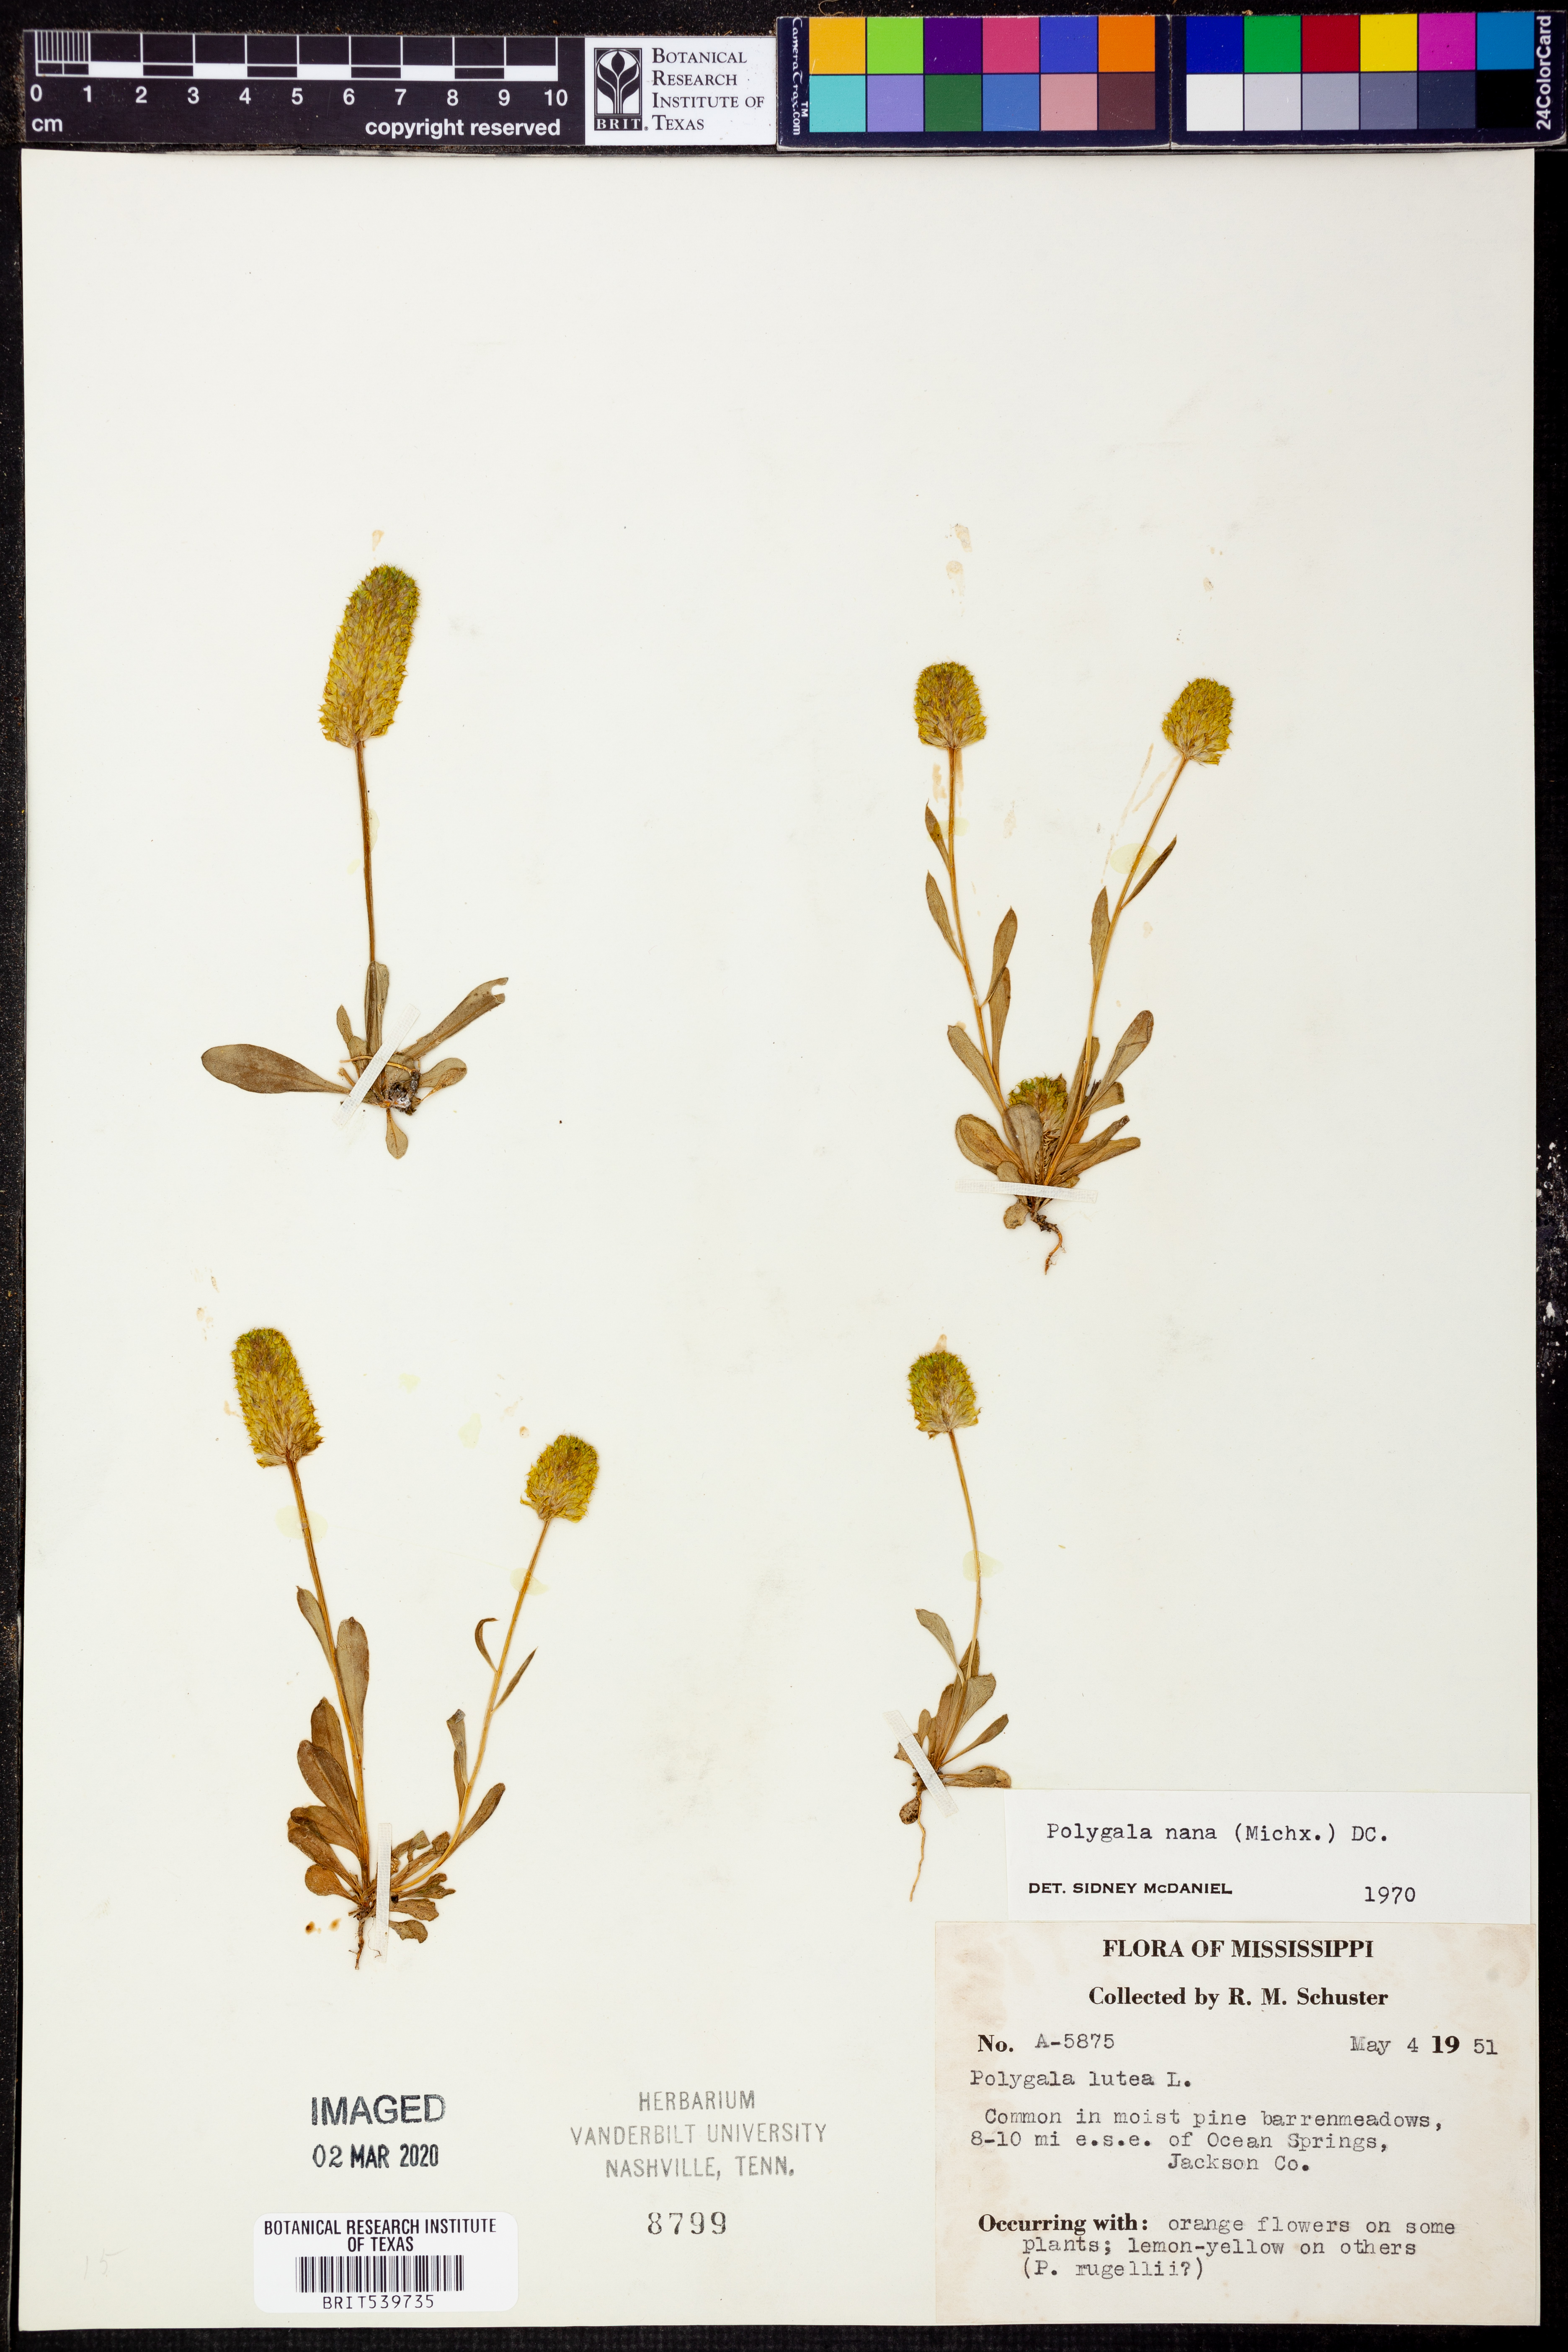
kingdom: Plantae
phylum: Tracheophyta
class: Magnoliopsida
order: Fabales
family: Polygalaceae
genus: Polygala
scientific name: Polygala nana
